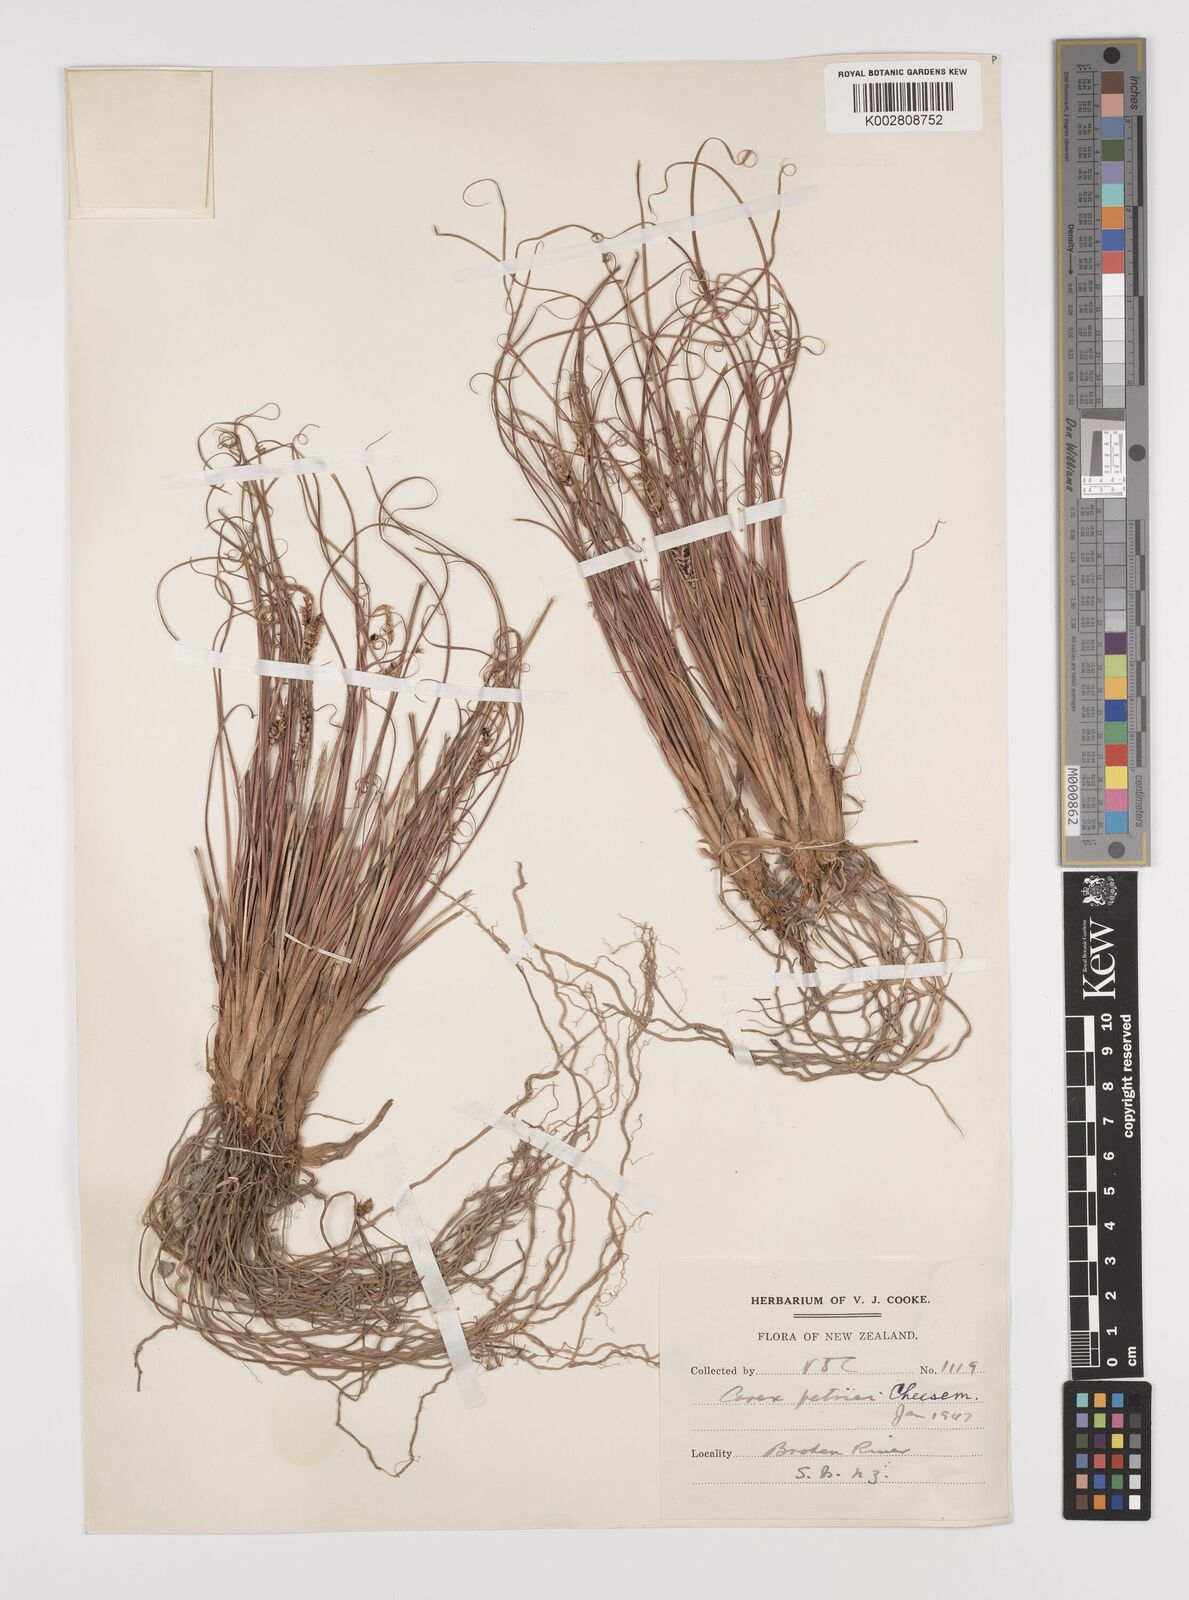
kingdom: Plantae
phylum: Tracheophyta
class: Liliopsida
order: Poales
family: Cyperaceae
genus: Carex
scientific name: Carex petriei
